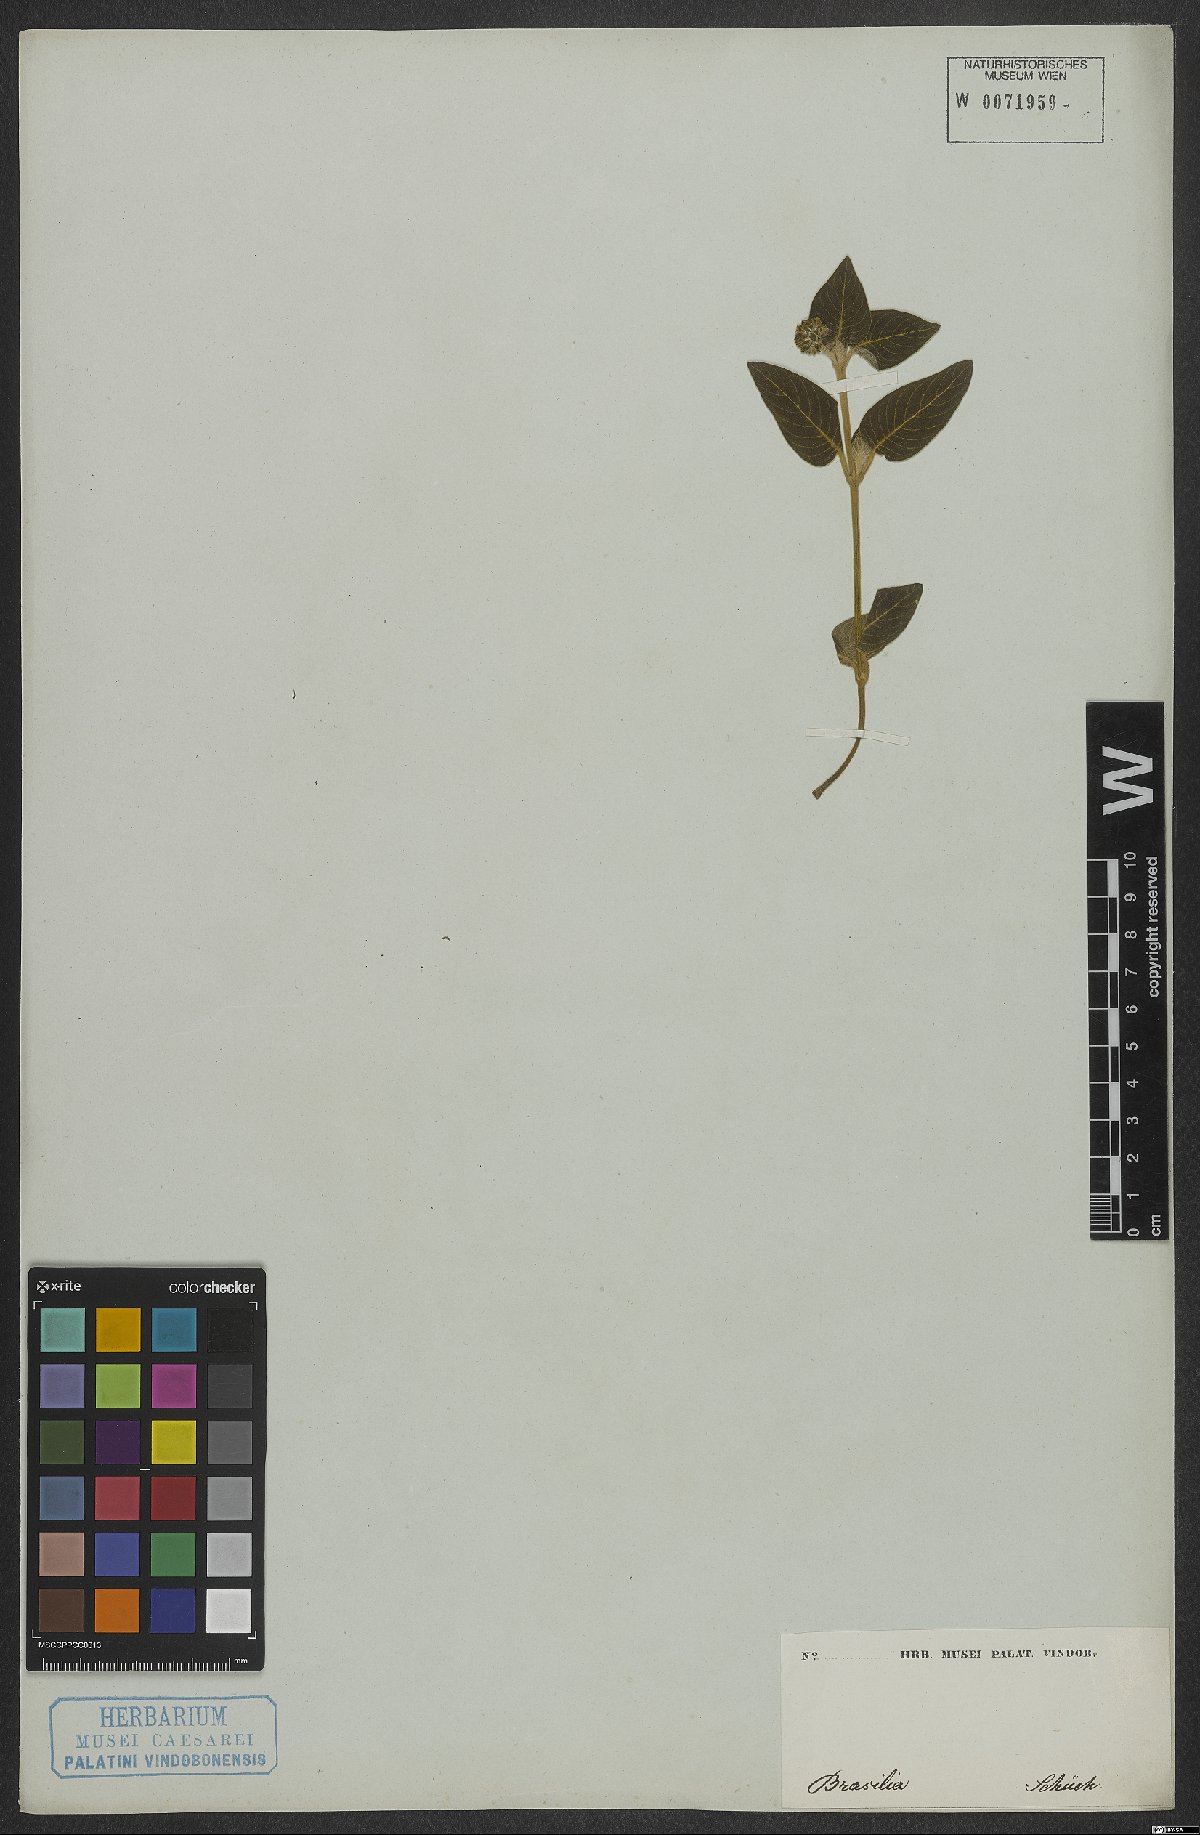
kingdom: Plantae
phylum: Tracheophyta
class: Magnoliopsida
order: Gentianales
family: Rubiaceae
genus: Coccocypselum
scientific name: Coccocypselum
